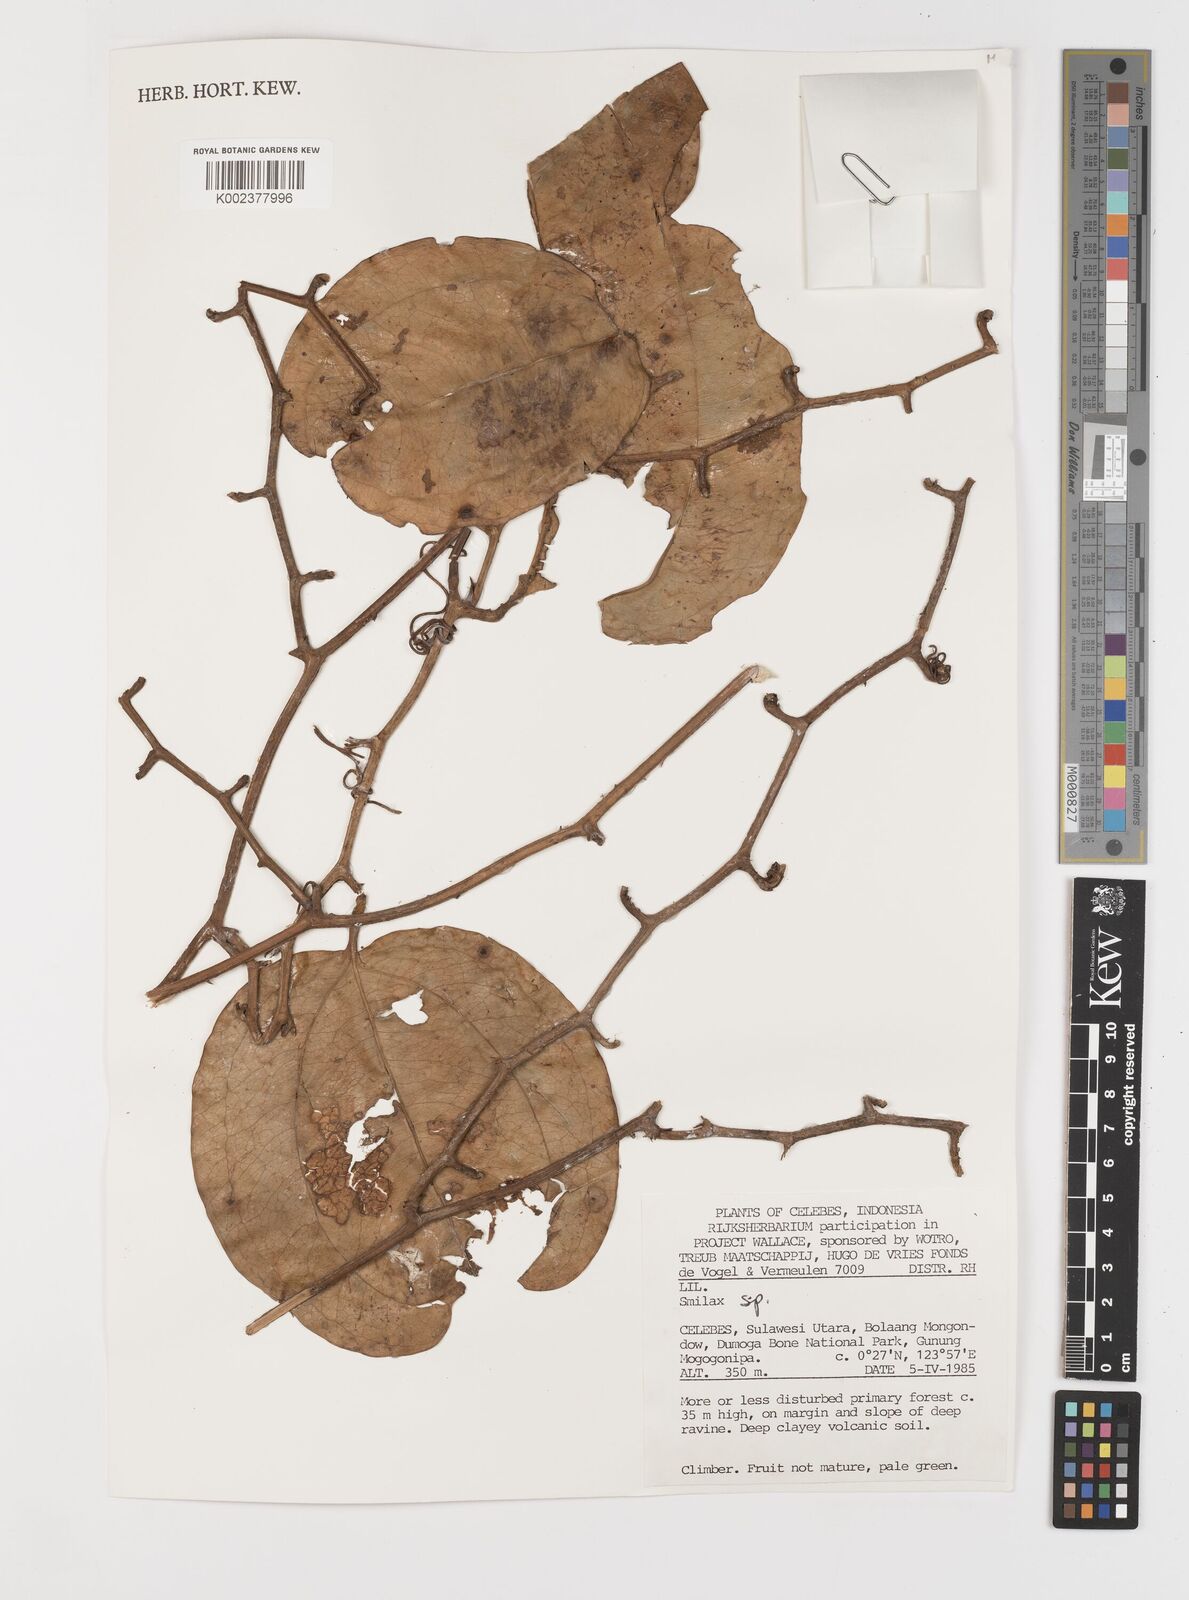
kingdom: Plantae
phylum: Tracheophyta
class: Liliopsida
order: Liliales
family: Smilacaceae
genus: Smilax
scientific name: Smilax
